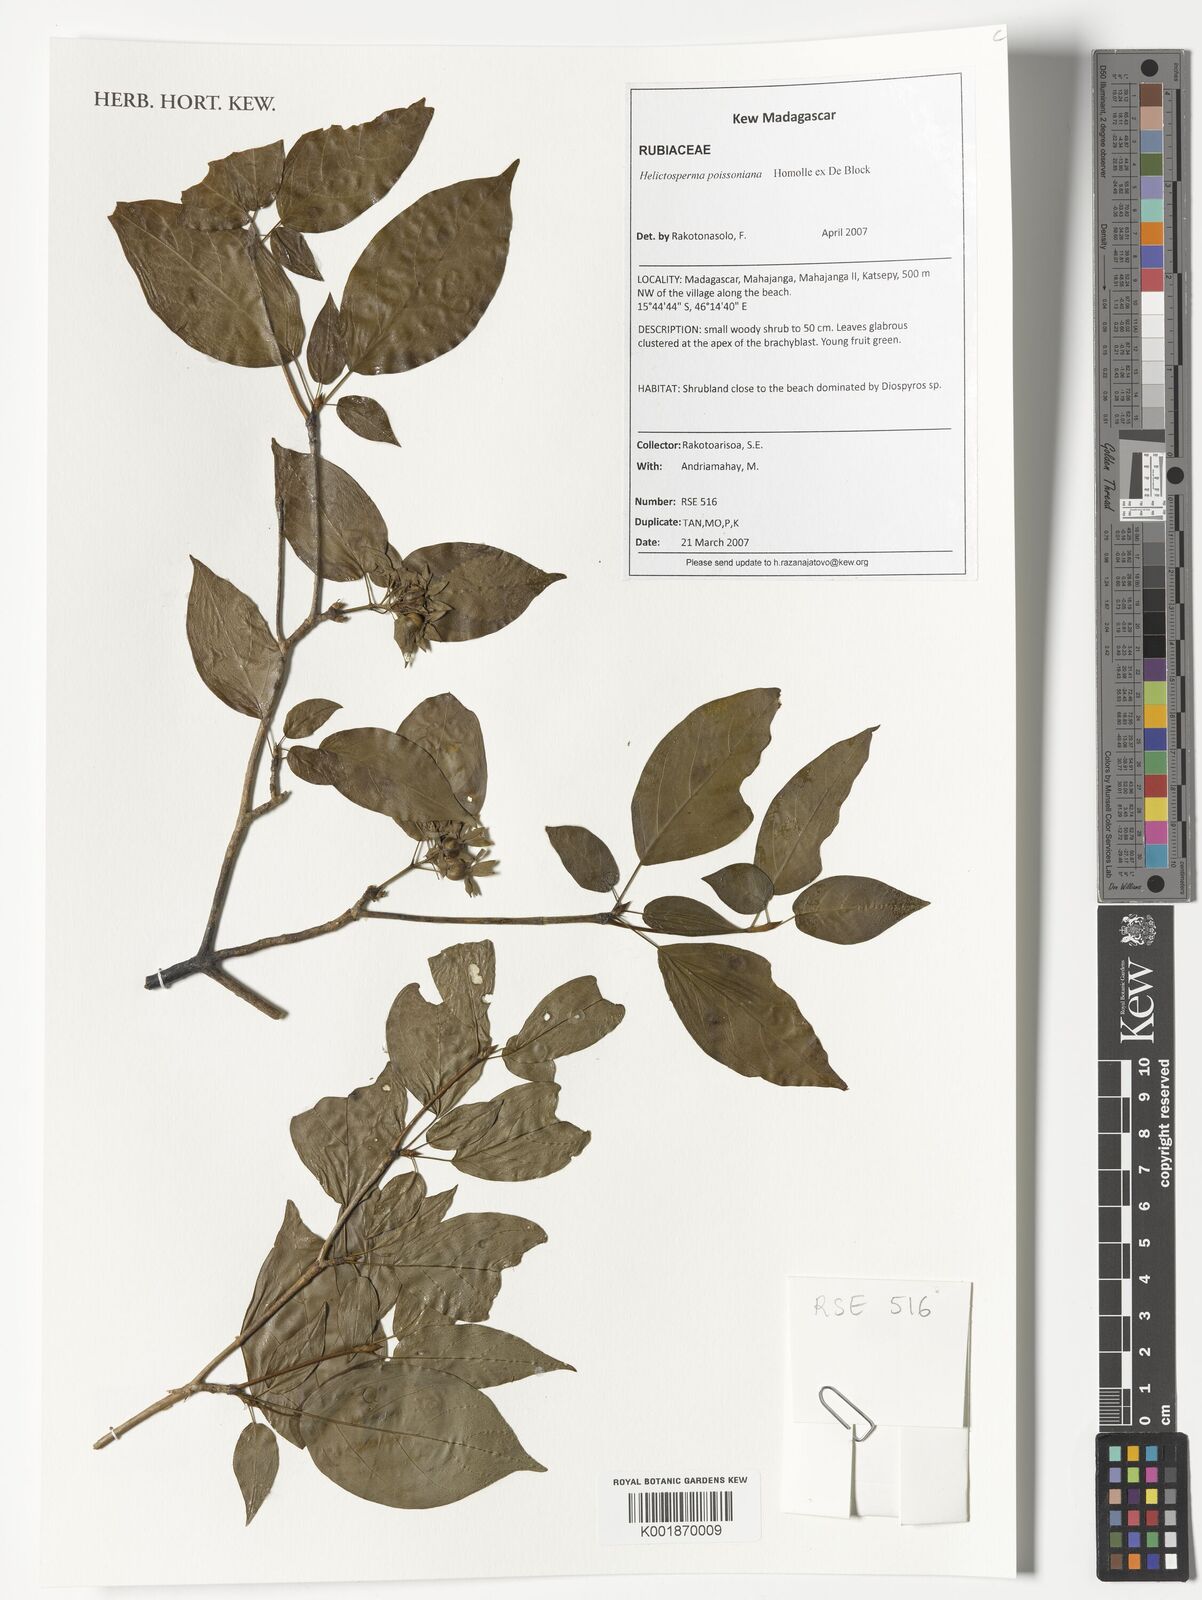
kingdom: Plantae
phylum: Tracheophyta
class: Magnoliopsida
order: Gentianales
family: Rubiaceae
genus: Helictosperma
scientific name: Helictosperma poissonianum
